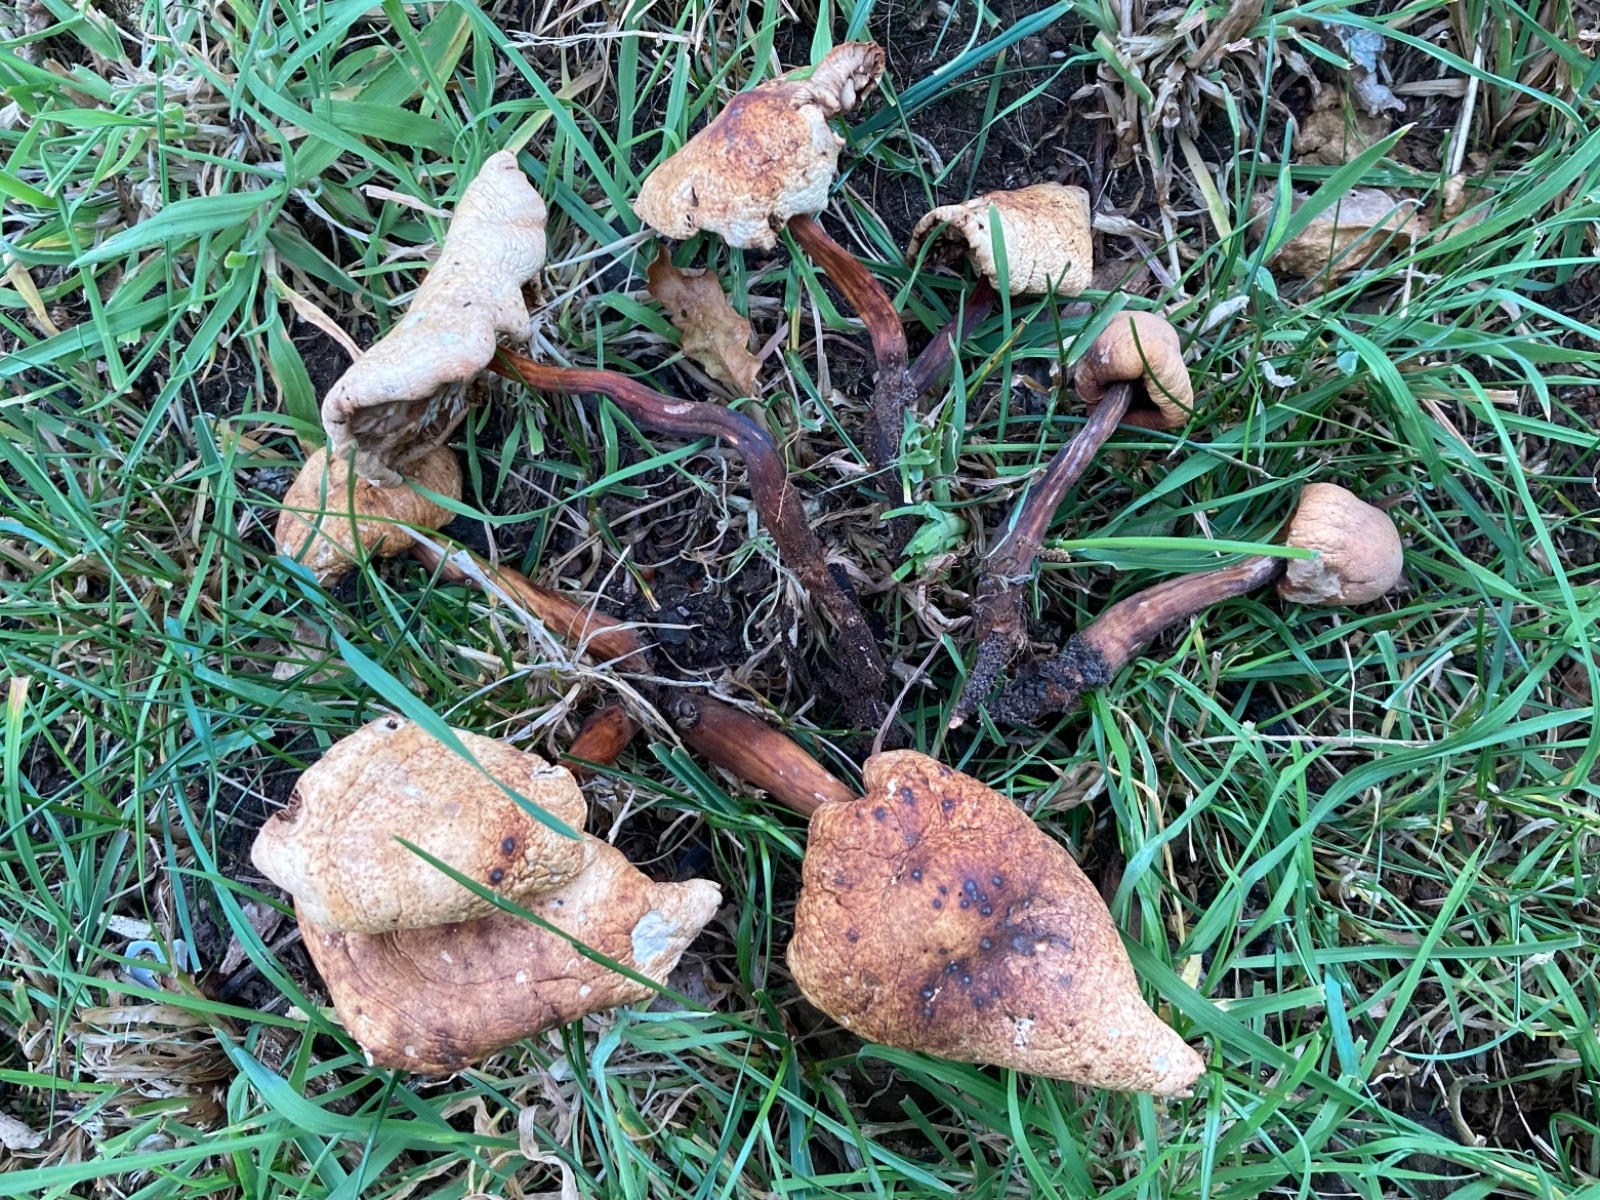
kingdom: Fungi
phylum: Basidiomycota
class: Agaricomycetes
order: Agaricales
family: Omphalotaceae
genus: Gymnopus
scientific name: Gymnopus fusipes
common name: tenstokket fladhat
